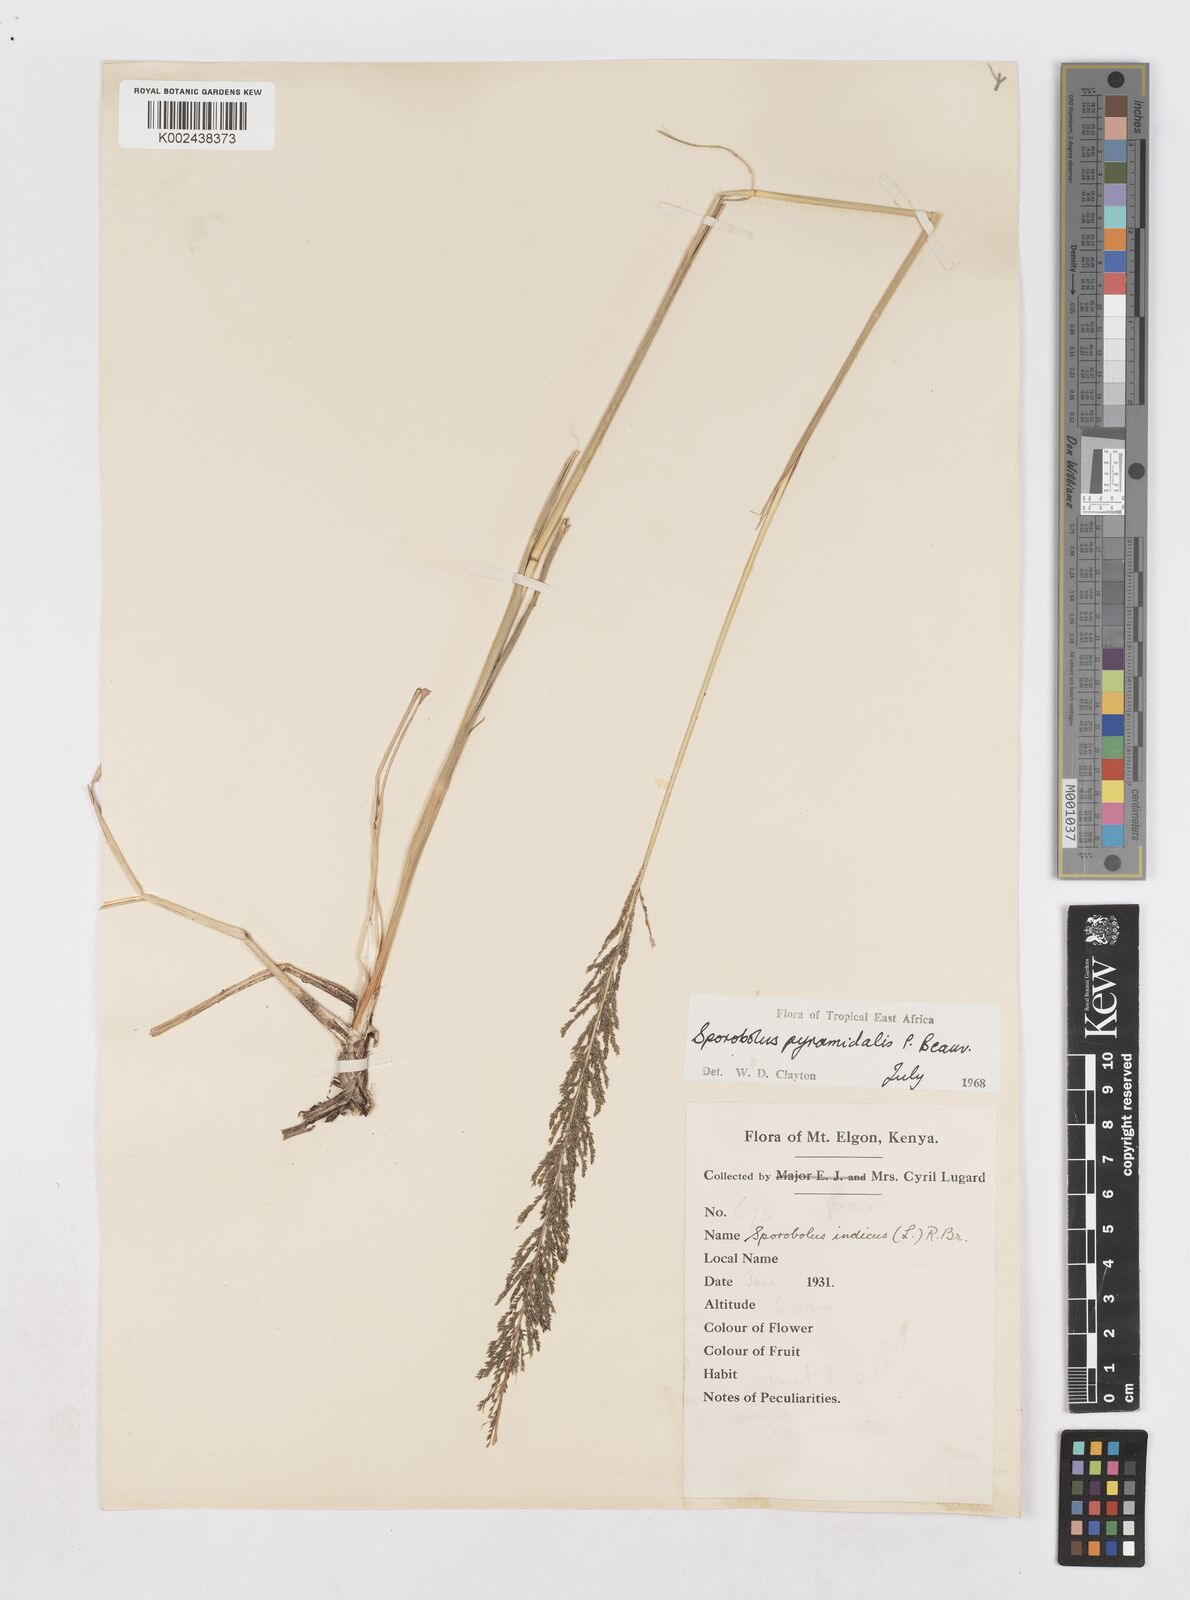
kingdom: Plantae
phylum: Tracheophyta
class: Liliopsida
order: Poales
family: Poaceae
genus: Sporobolus
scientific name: Sporobolus pyramidalis
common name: West indian dropseed
